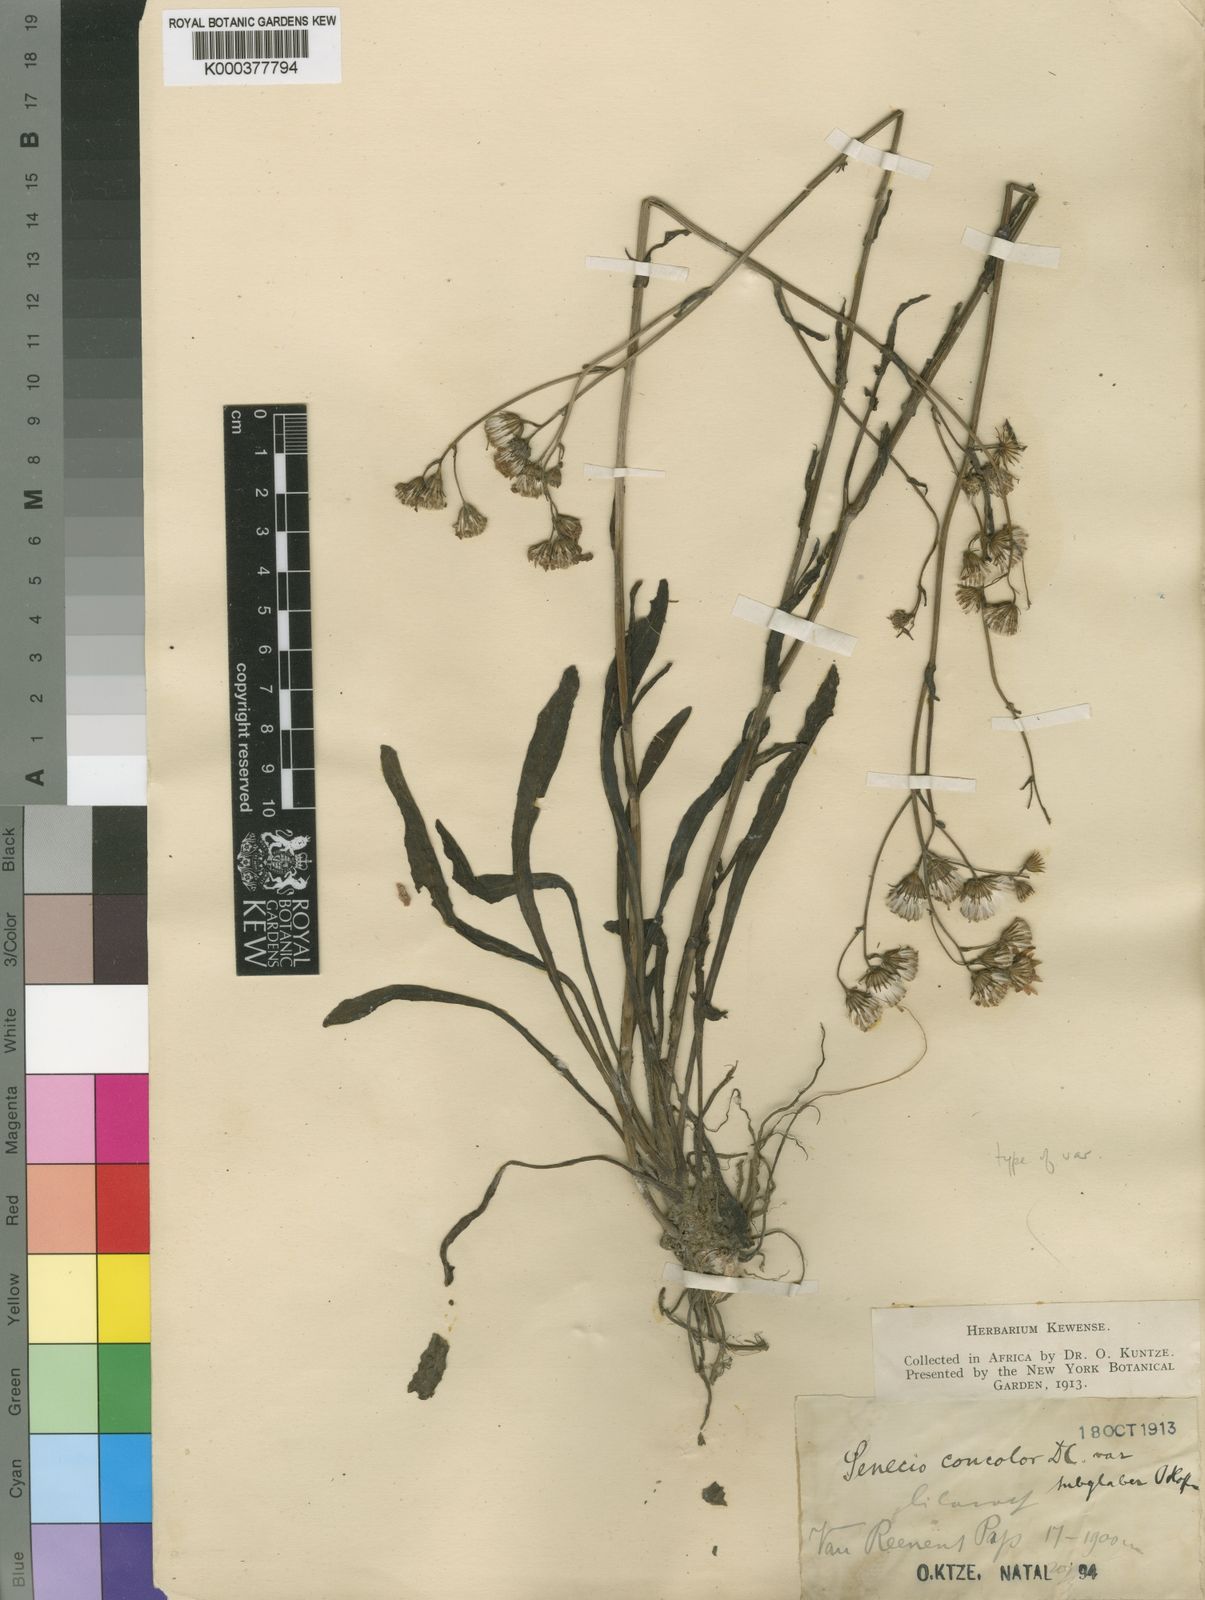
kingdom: Plantae
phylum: Tracheophyta
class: Magnoliopsida
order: Asterales
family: Asteraceae
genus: Senecio
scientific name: Senecio speciosus
